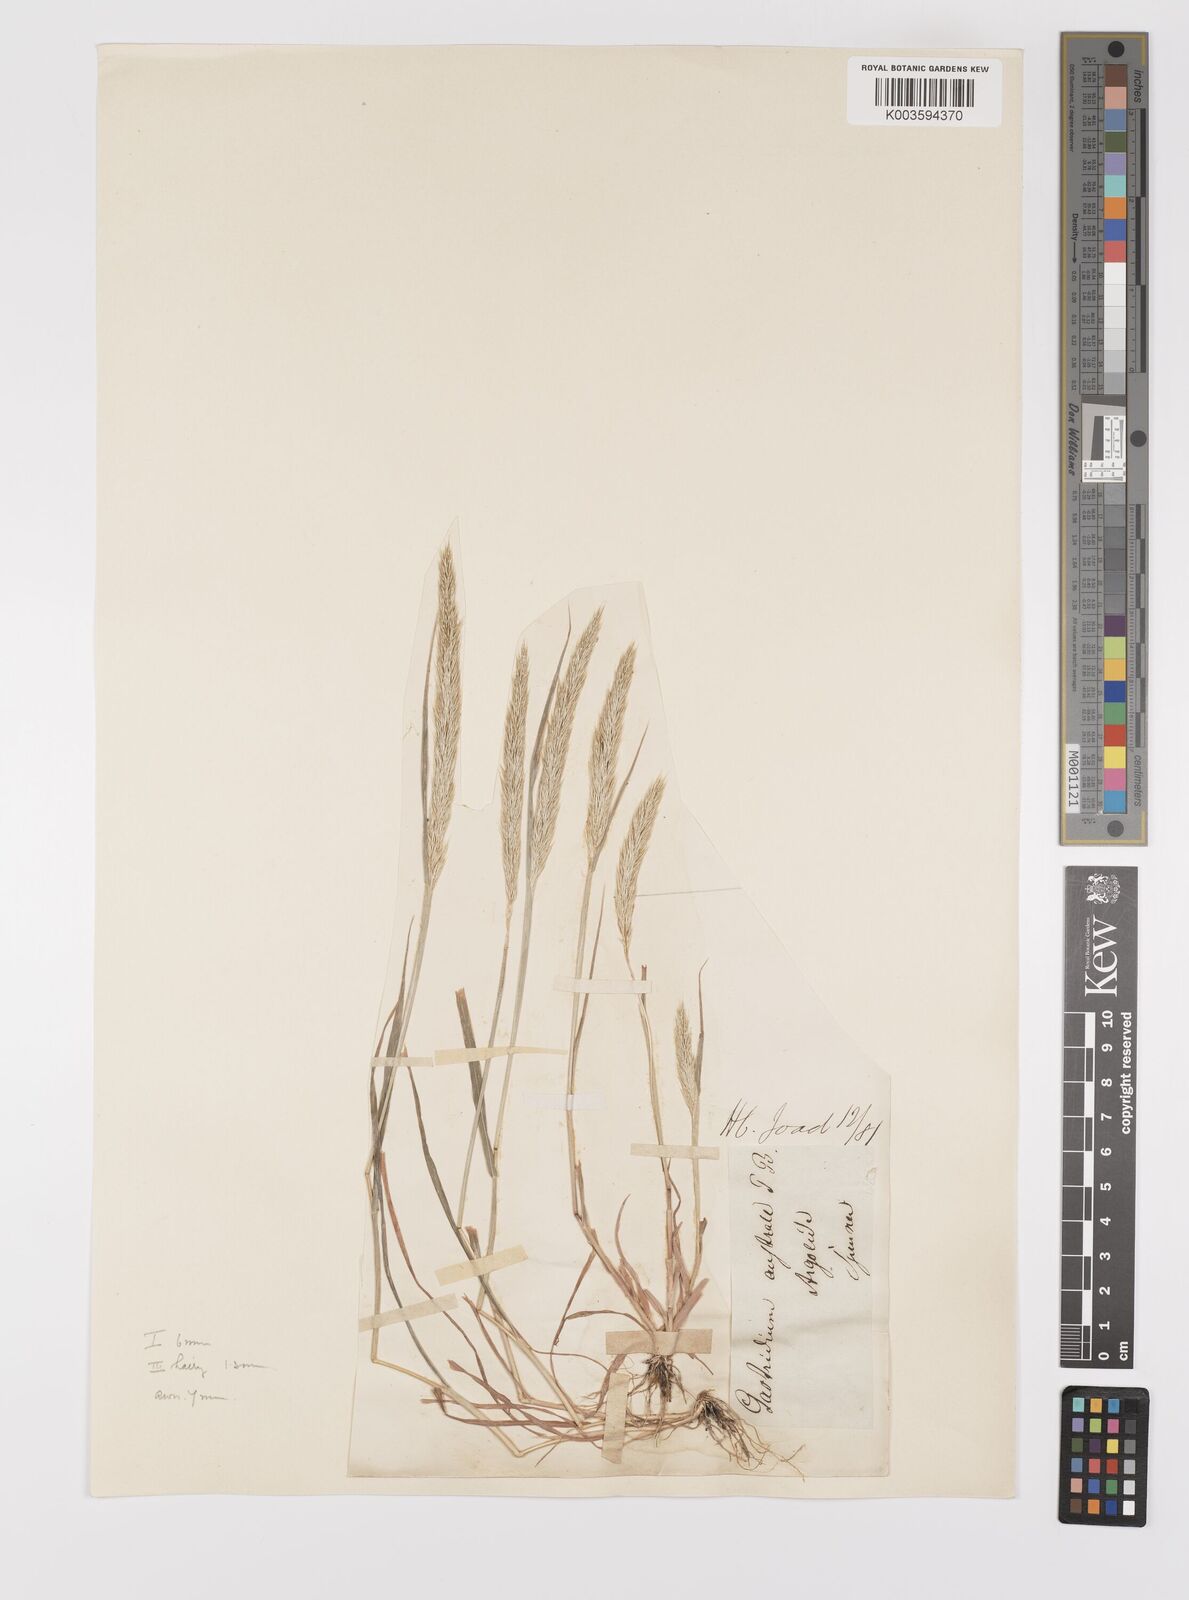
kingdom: Plantae
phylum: Tracheophyta
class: Liliopsida
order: Poales
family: Poaceae
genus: Gastridium
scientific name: Gastridium phleoides
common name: Nit grass
